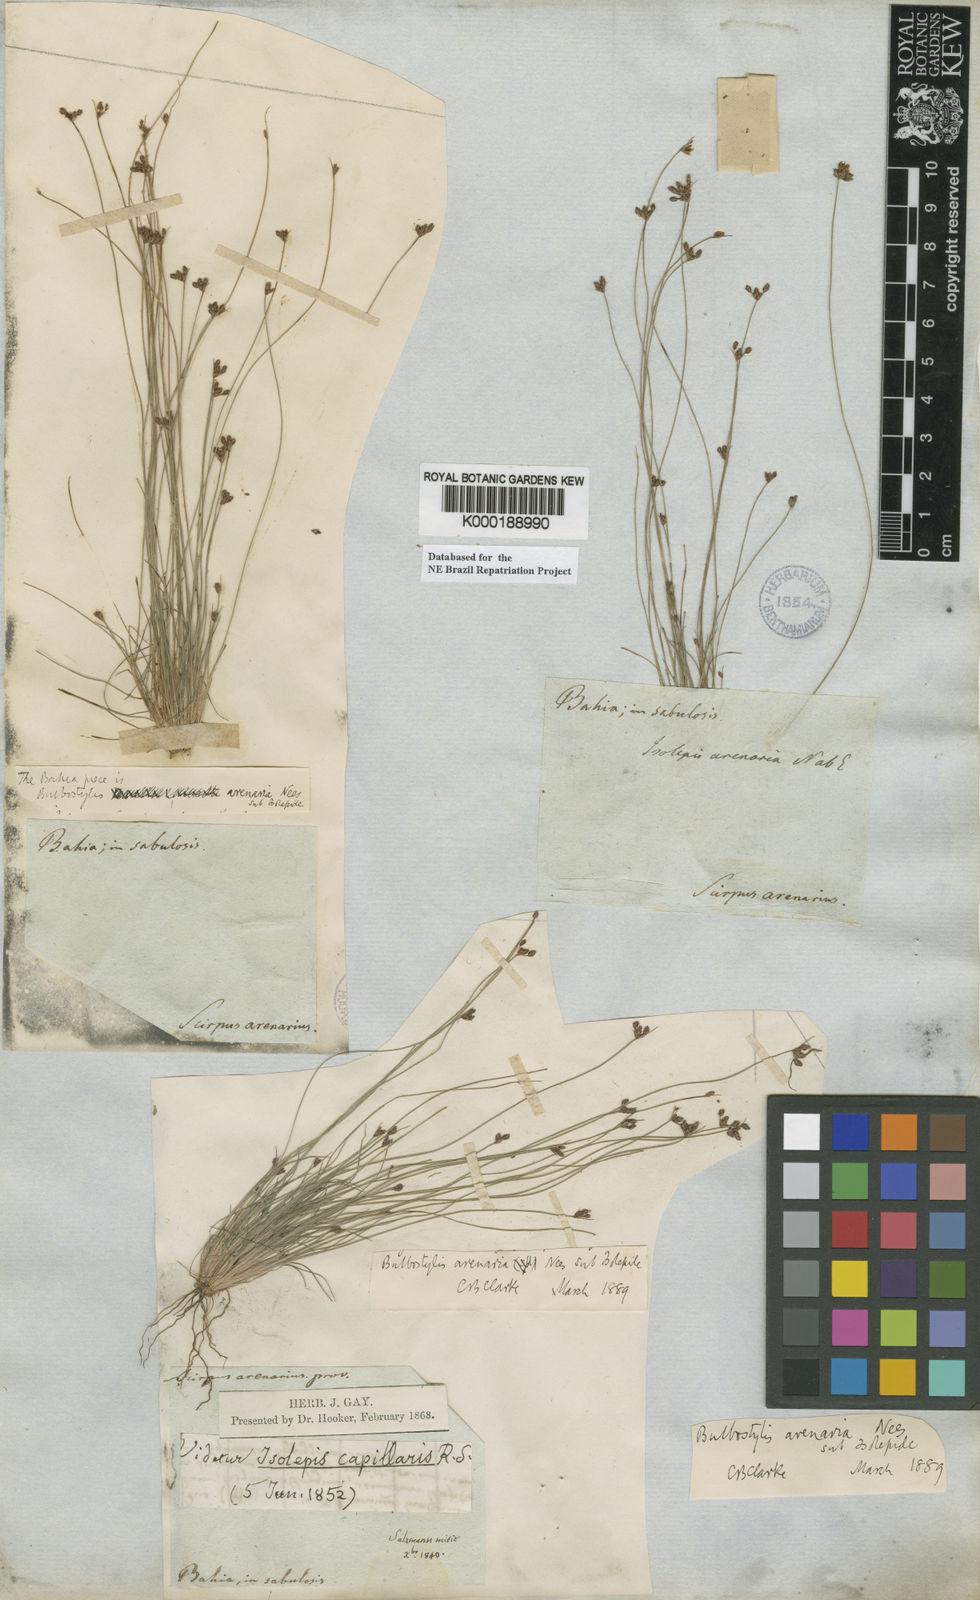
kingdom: Plantae
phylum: Tracheophyta
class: Liliopsida
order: Poales
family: Cyperaceae
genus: Bulbostylis
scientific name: Bulbostylis juncoides
